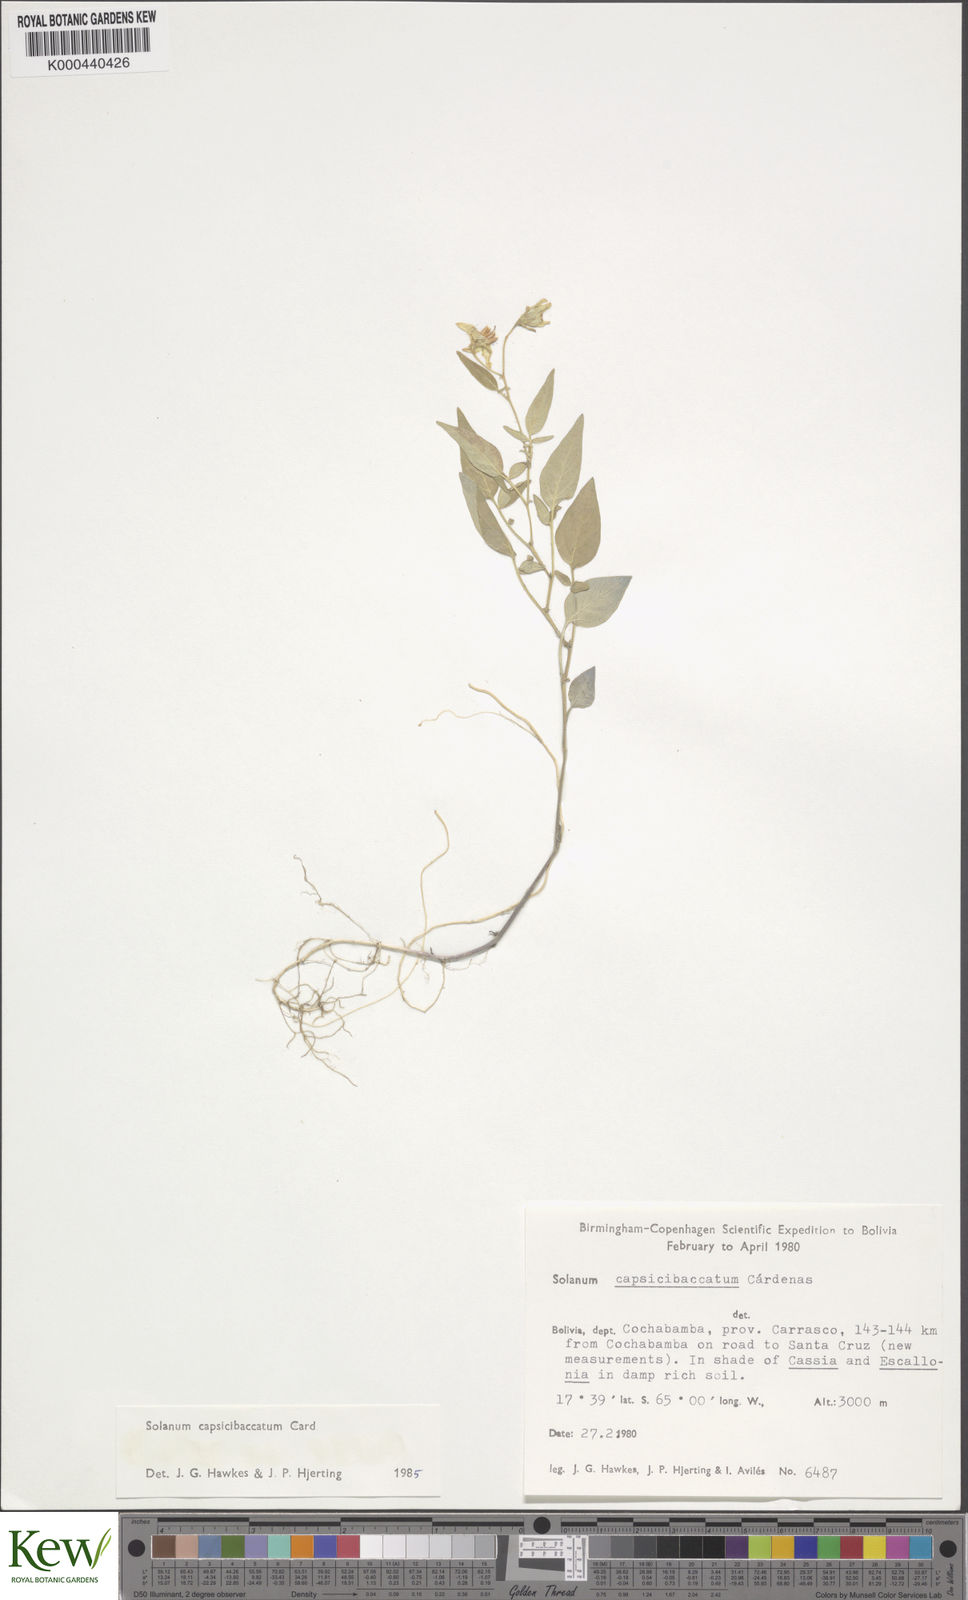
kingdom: Plantae
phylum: Tracheophyta
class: Magnoliopsida
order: Solanales
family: Solanaceae
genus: Solanum
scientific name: Solanum stipuloideum
